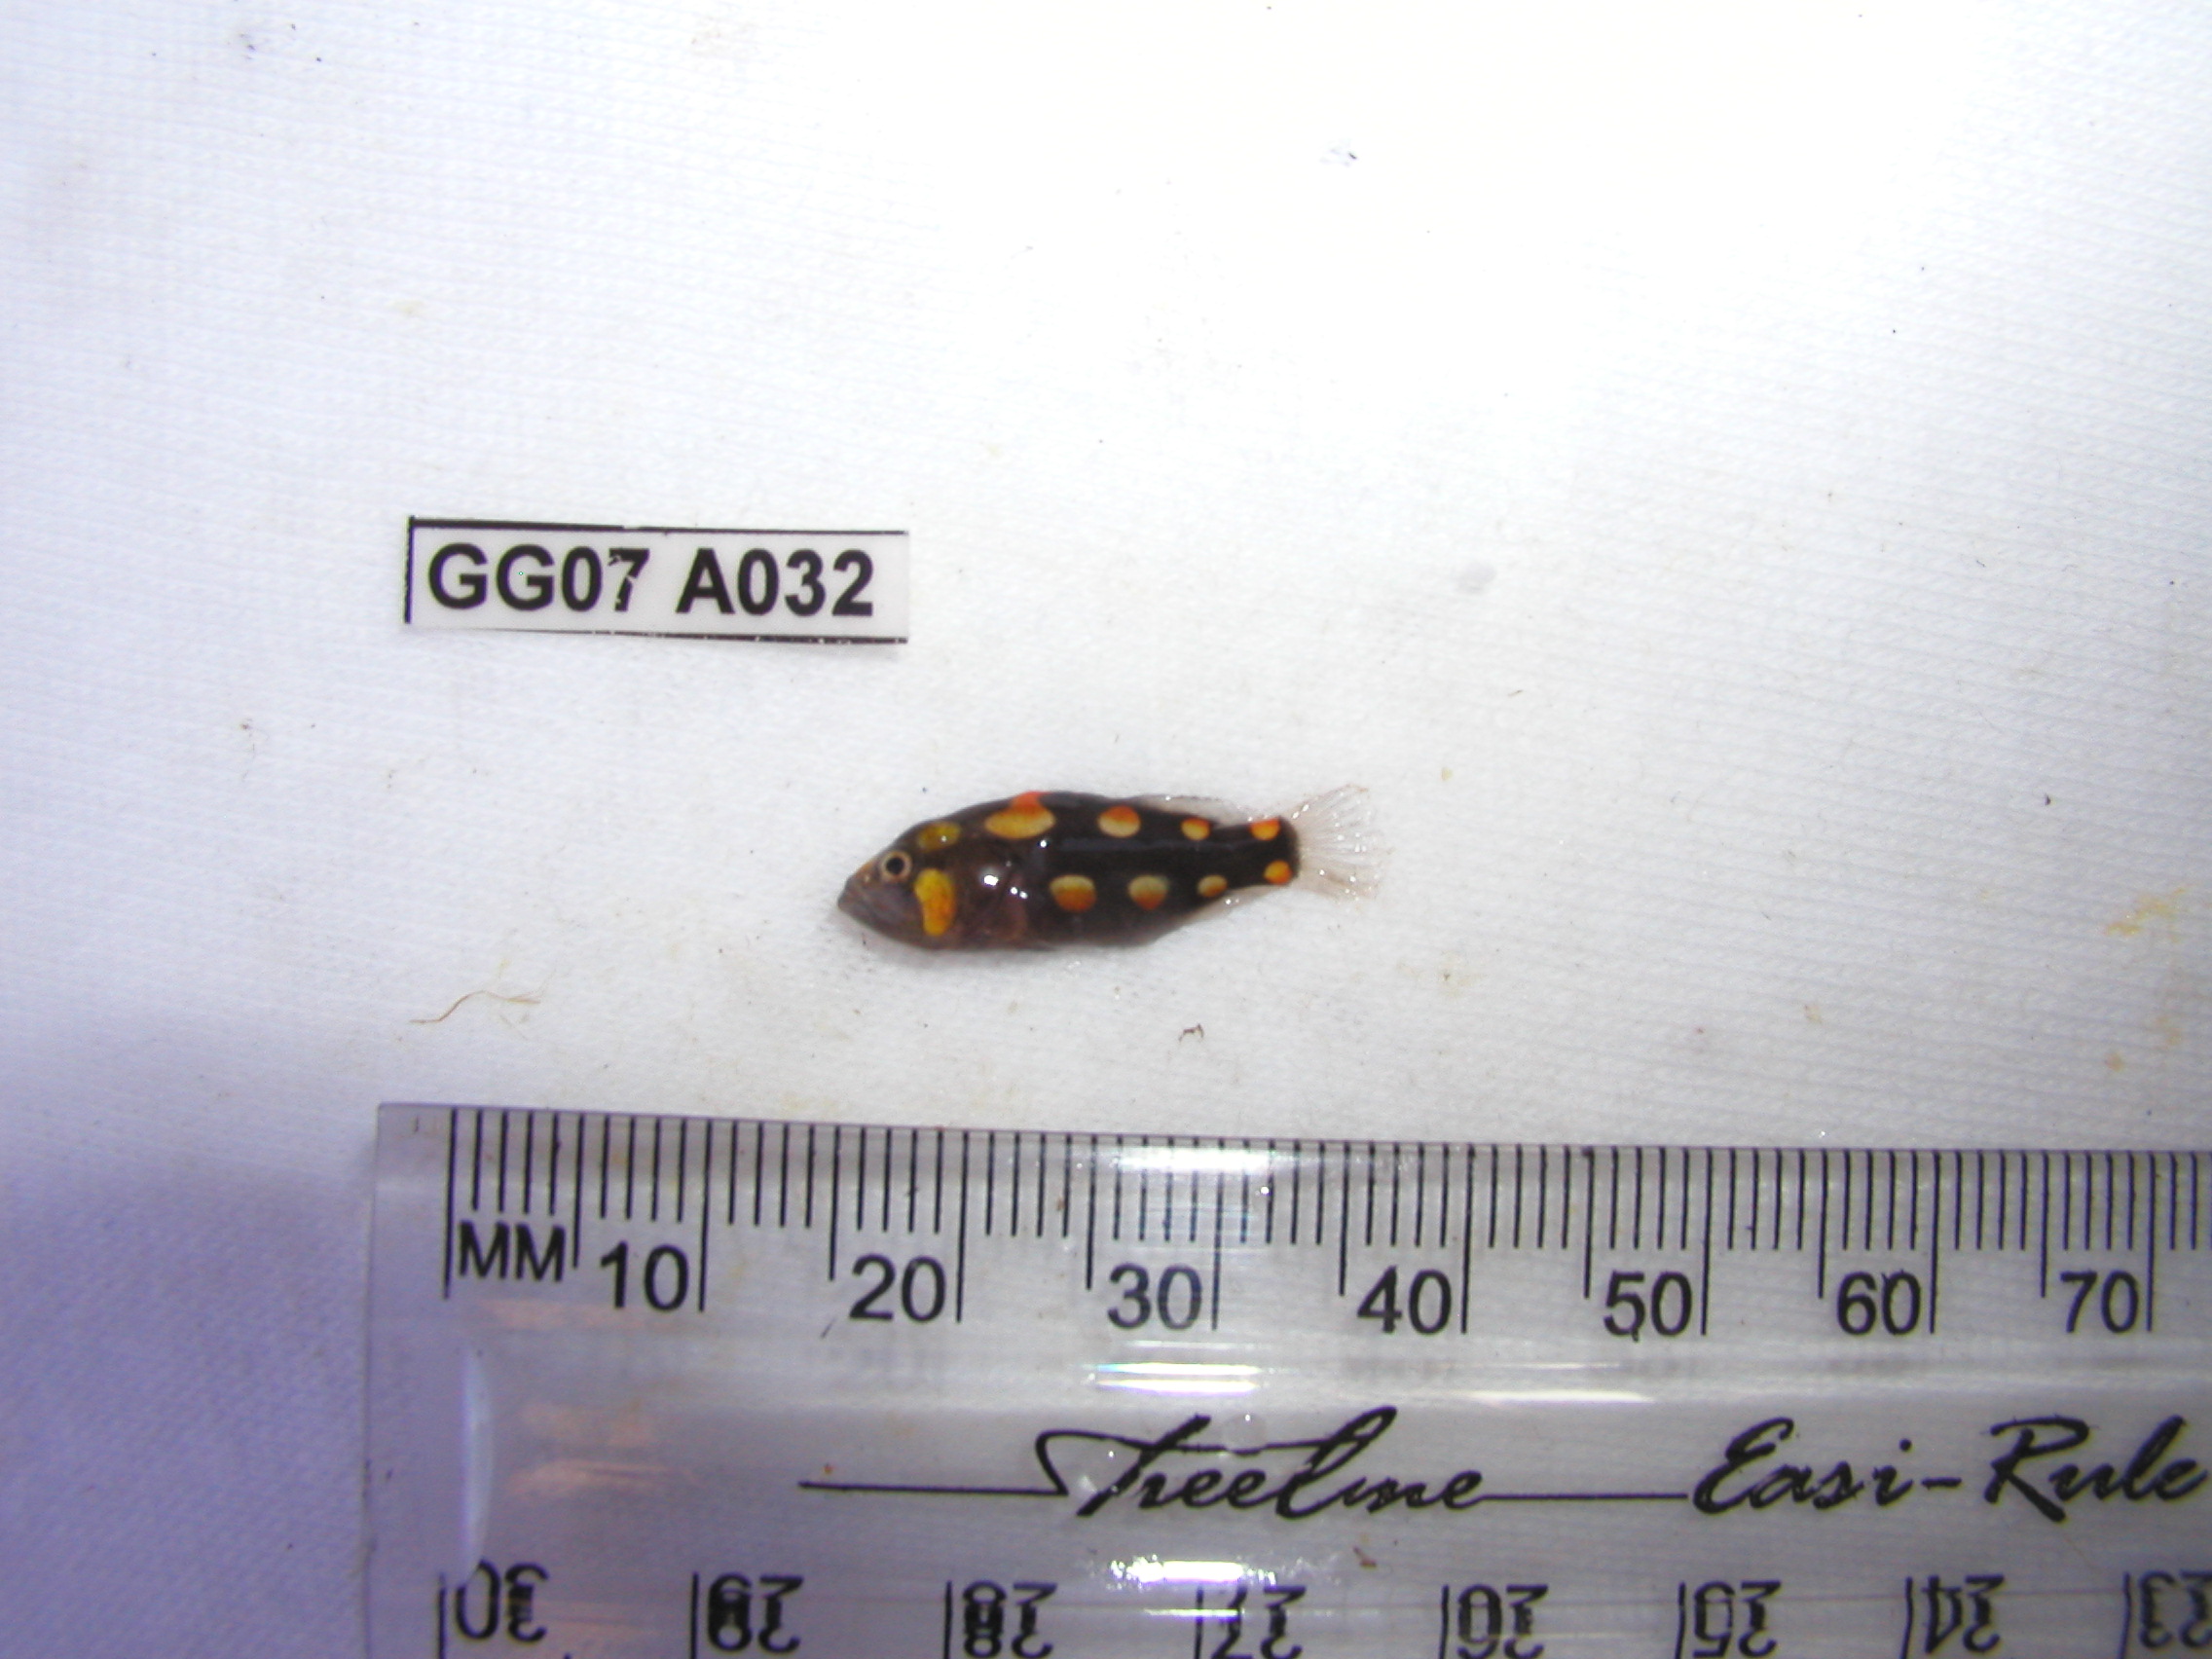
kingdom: Animalia
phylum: Chordata
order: Perciformes
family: Serranidae
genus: Grammistes
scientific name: Grammistes sexlineatus
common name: Sixline soapfish
